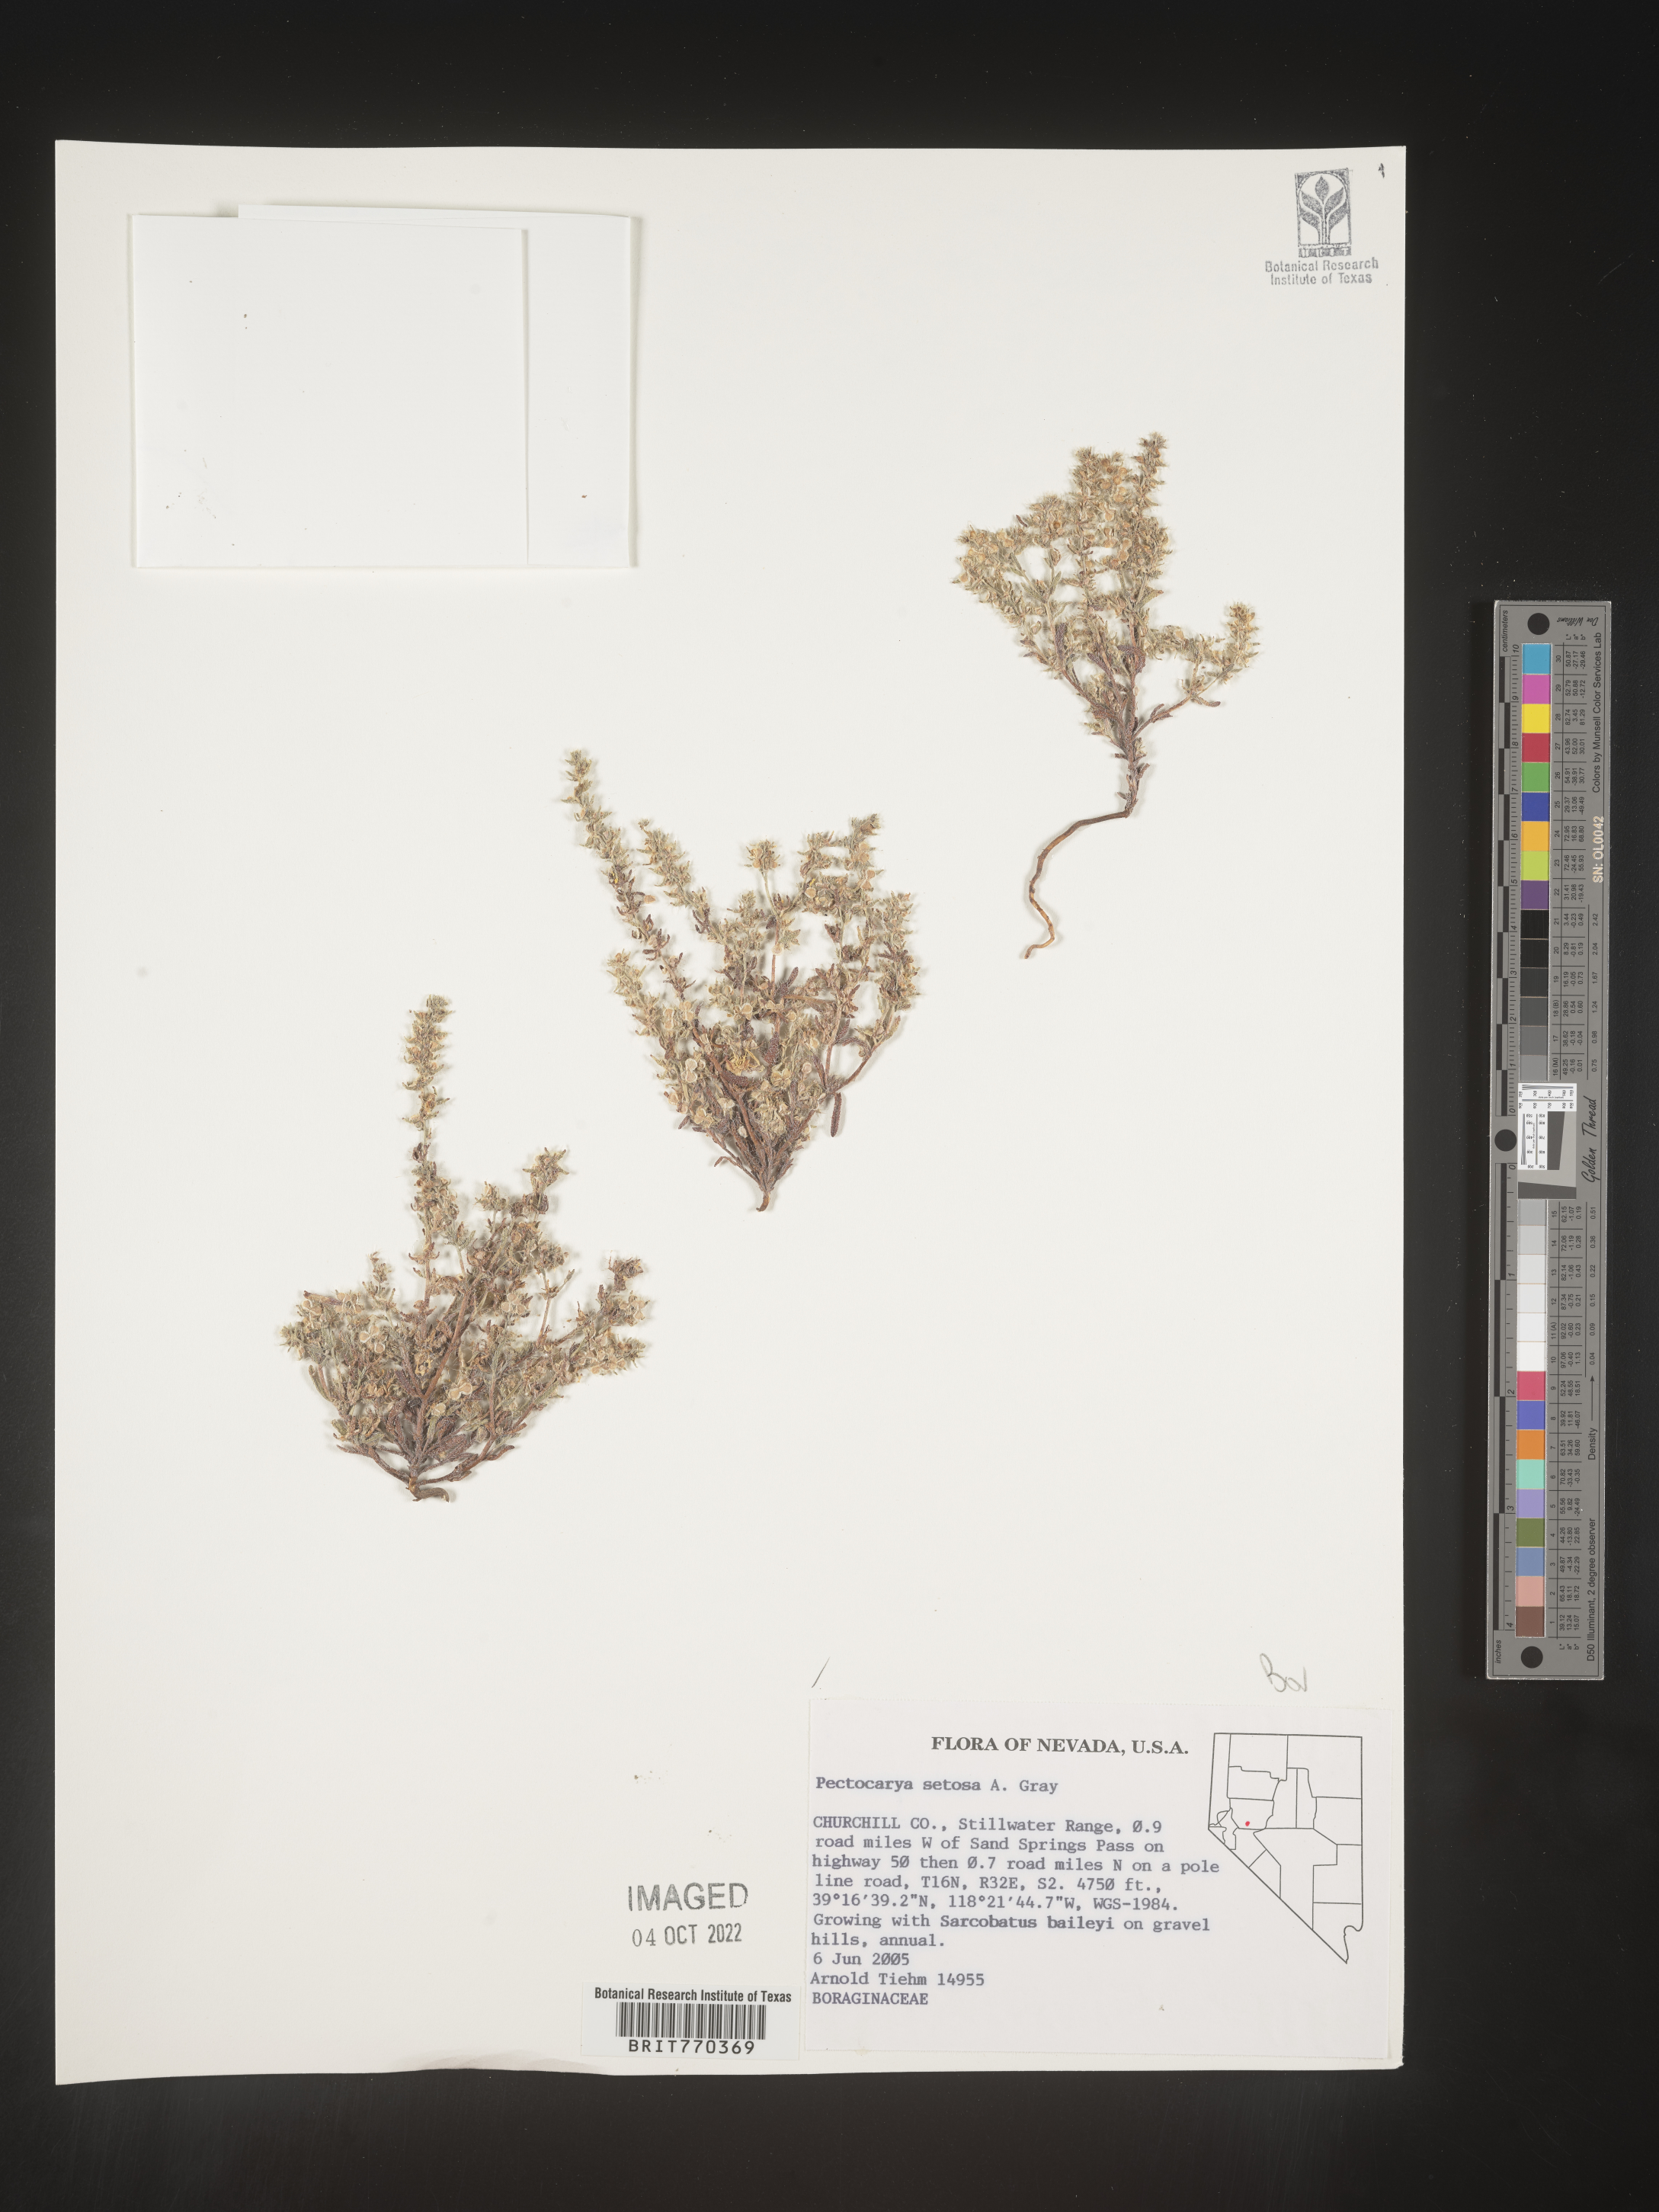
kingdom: Plantae
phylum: Tracheophyta
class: Magnoliopsida
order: Boraginales
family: Boraginaceae
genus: Pectocarya
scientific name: Pectocarya
